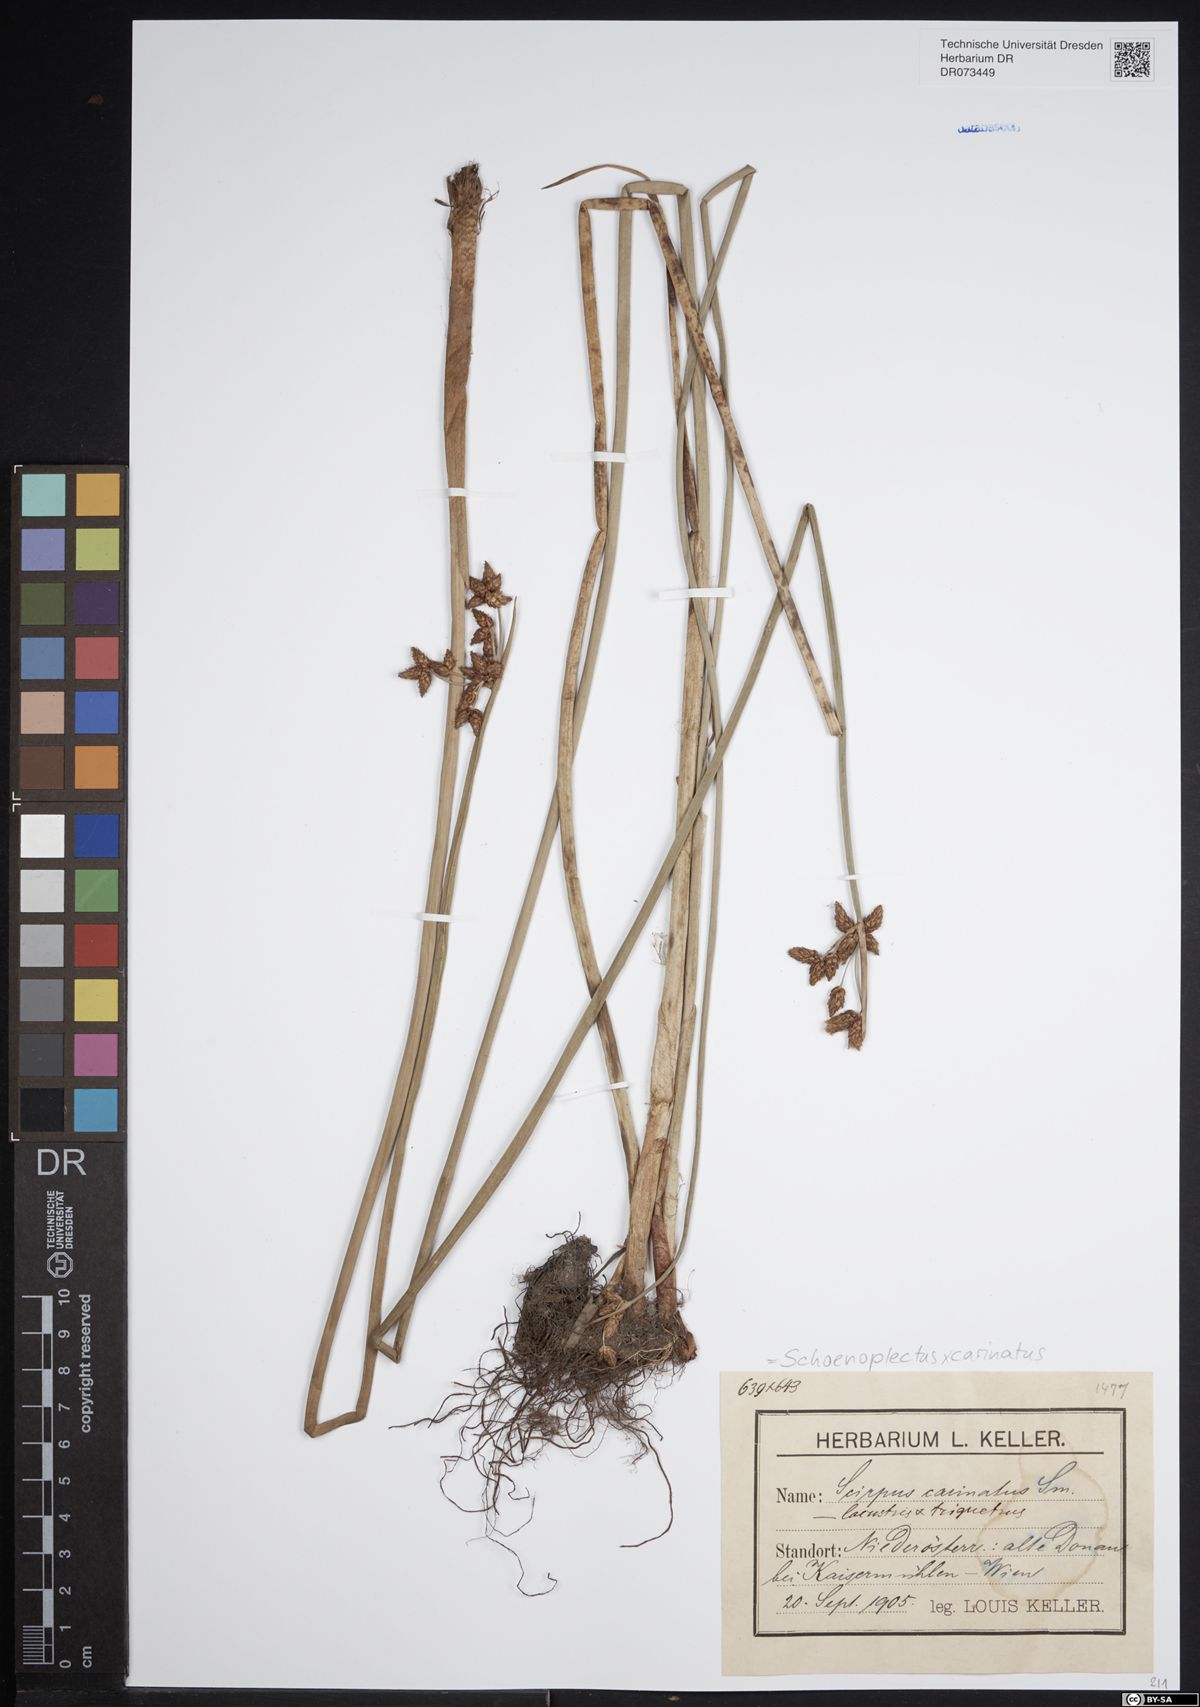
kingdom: Plantae
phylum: Tracheophyta
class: Liliopsida
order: Poales
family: Cyperaceae
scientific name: Cyperaceae
